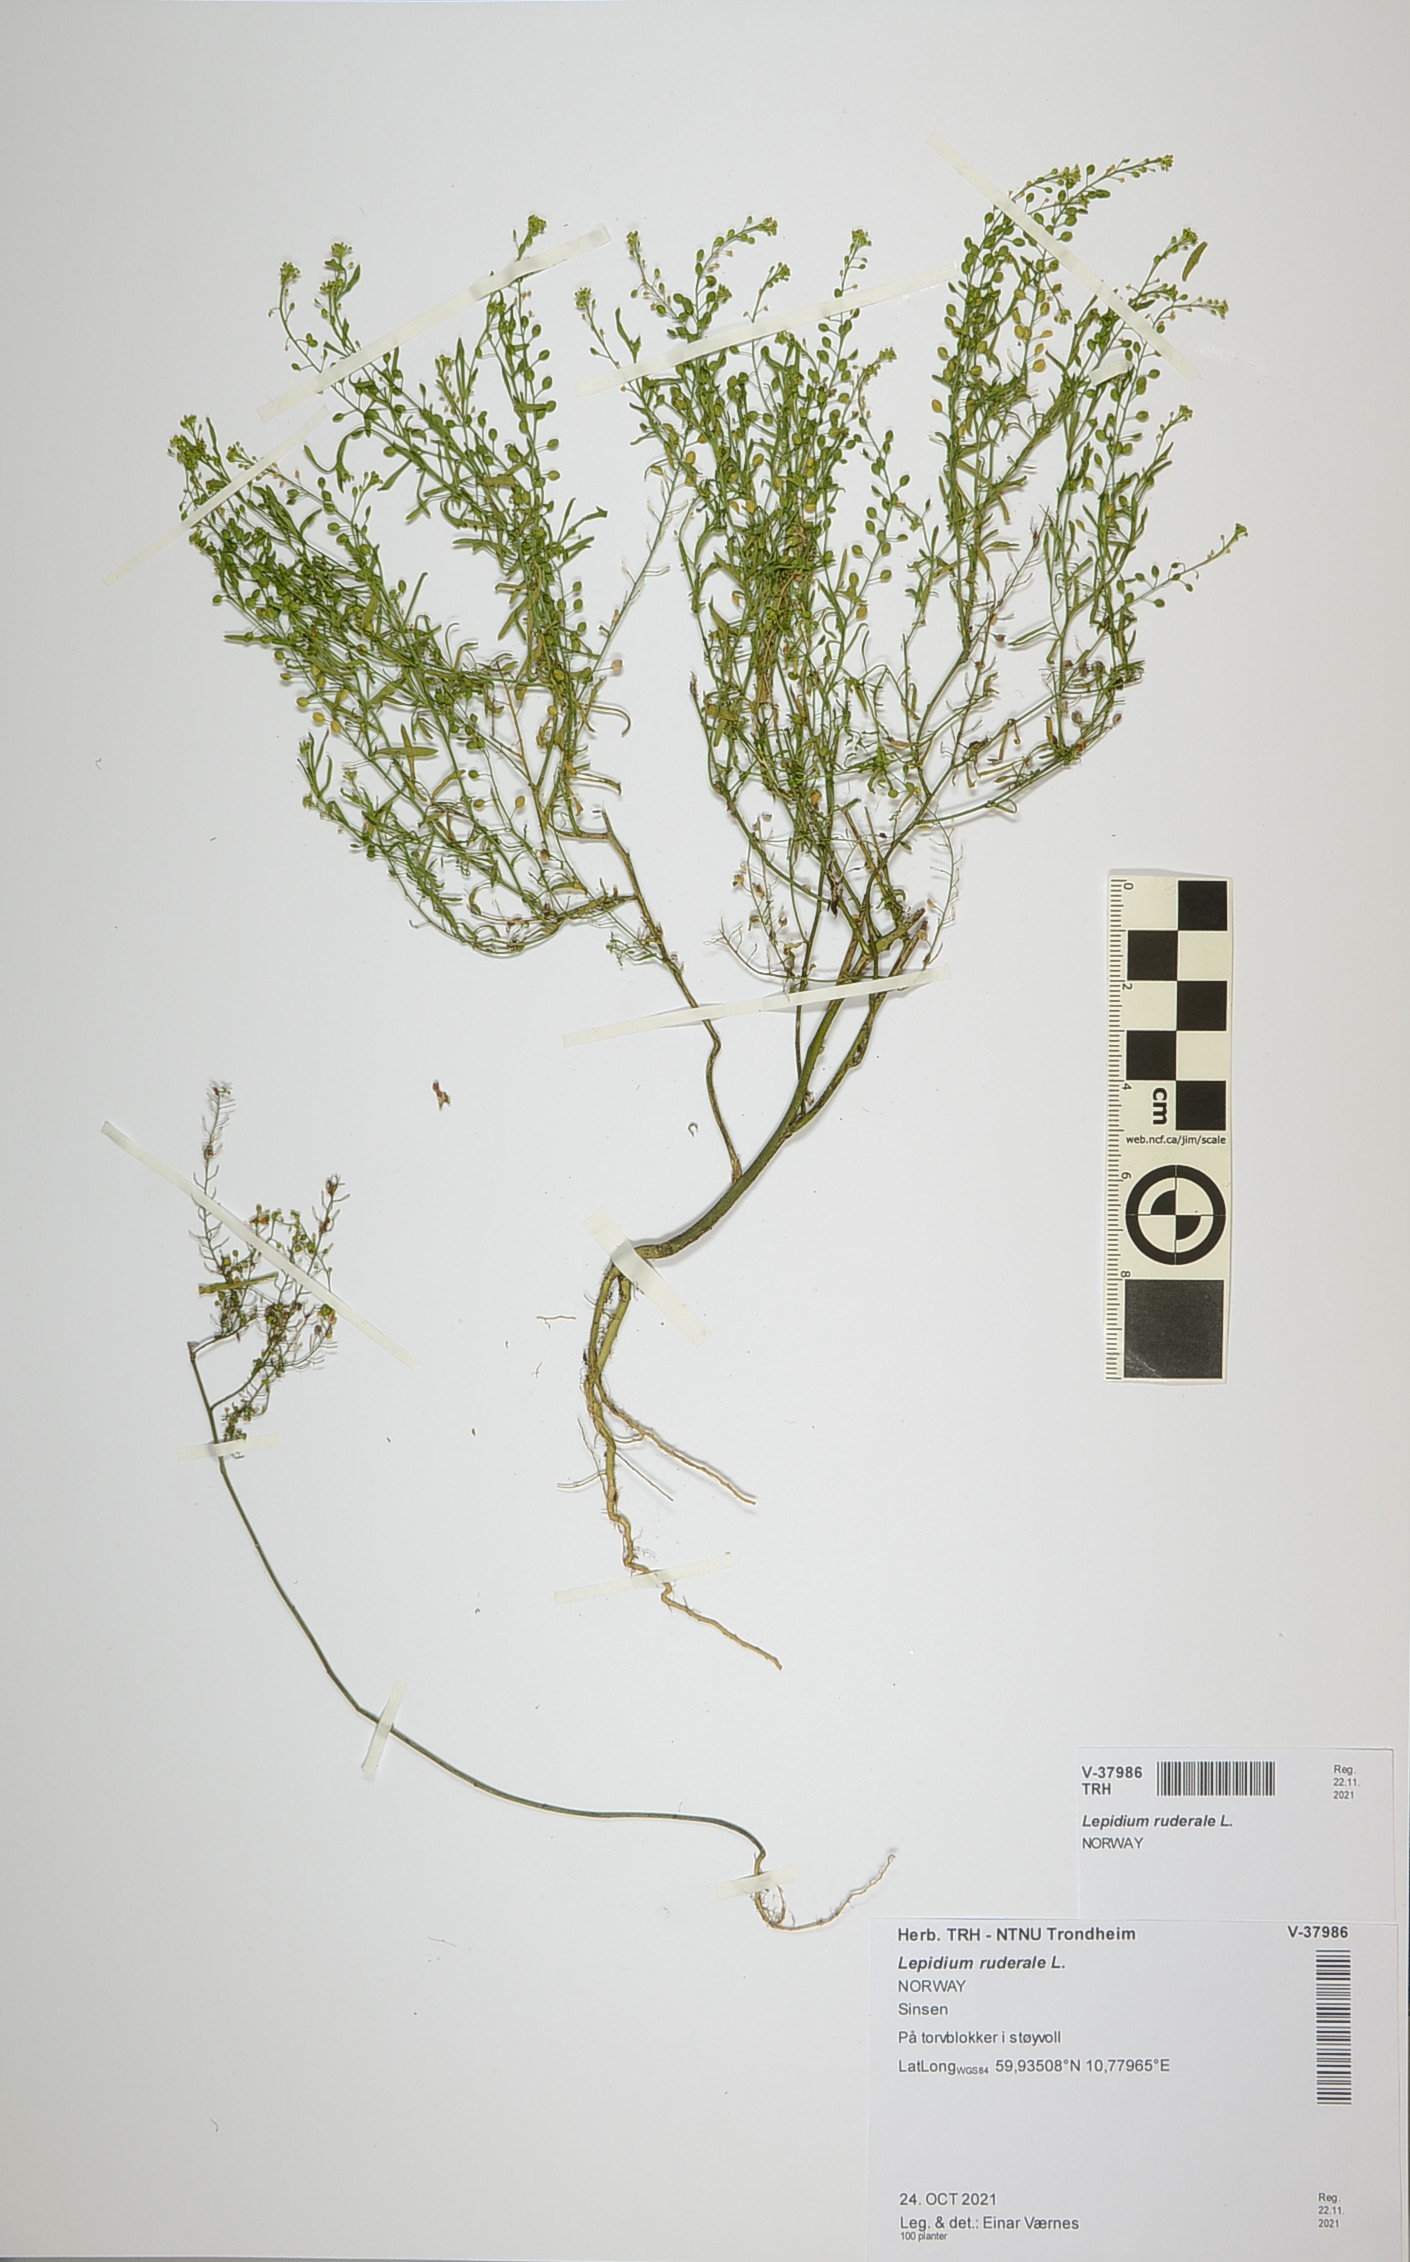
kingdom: Plantae
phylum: Tracheophyta
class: Magnoliopsida
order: Brassicales
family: Brassicaceae
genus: Lepidium
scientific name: Lepidium ruderale
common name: Narrow-leaved pepperwort
